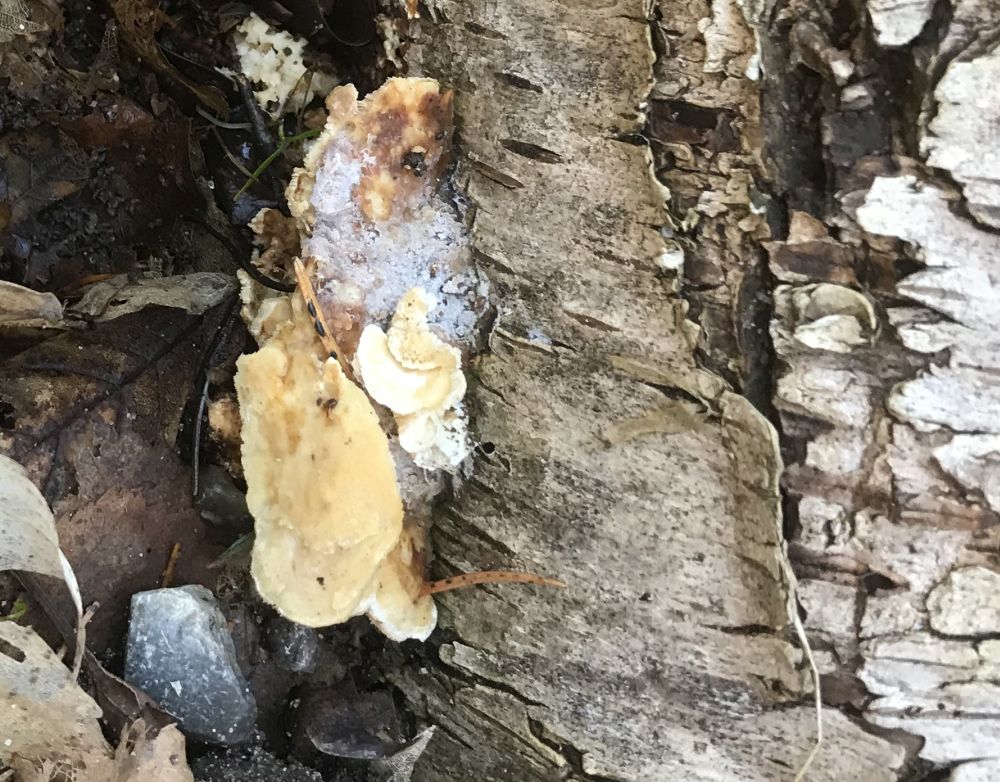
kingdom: Fungi
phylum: Basidiomycota
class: Agaricomycetes
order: Polyporales
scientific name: Polyporales
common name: poresvampordenen
